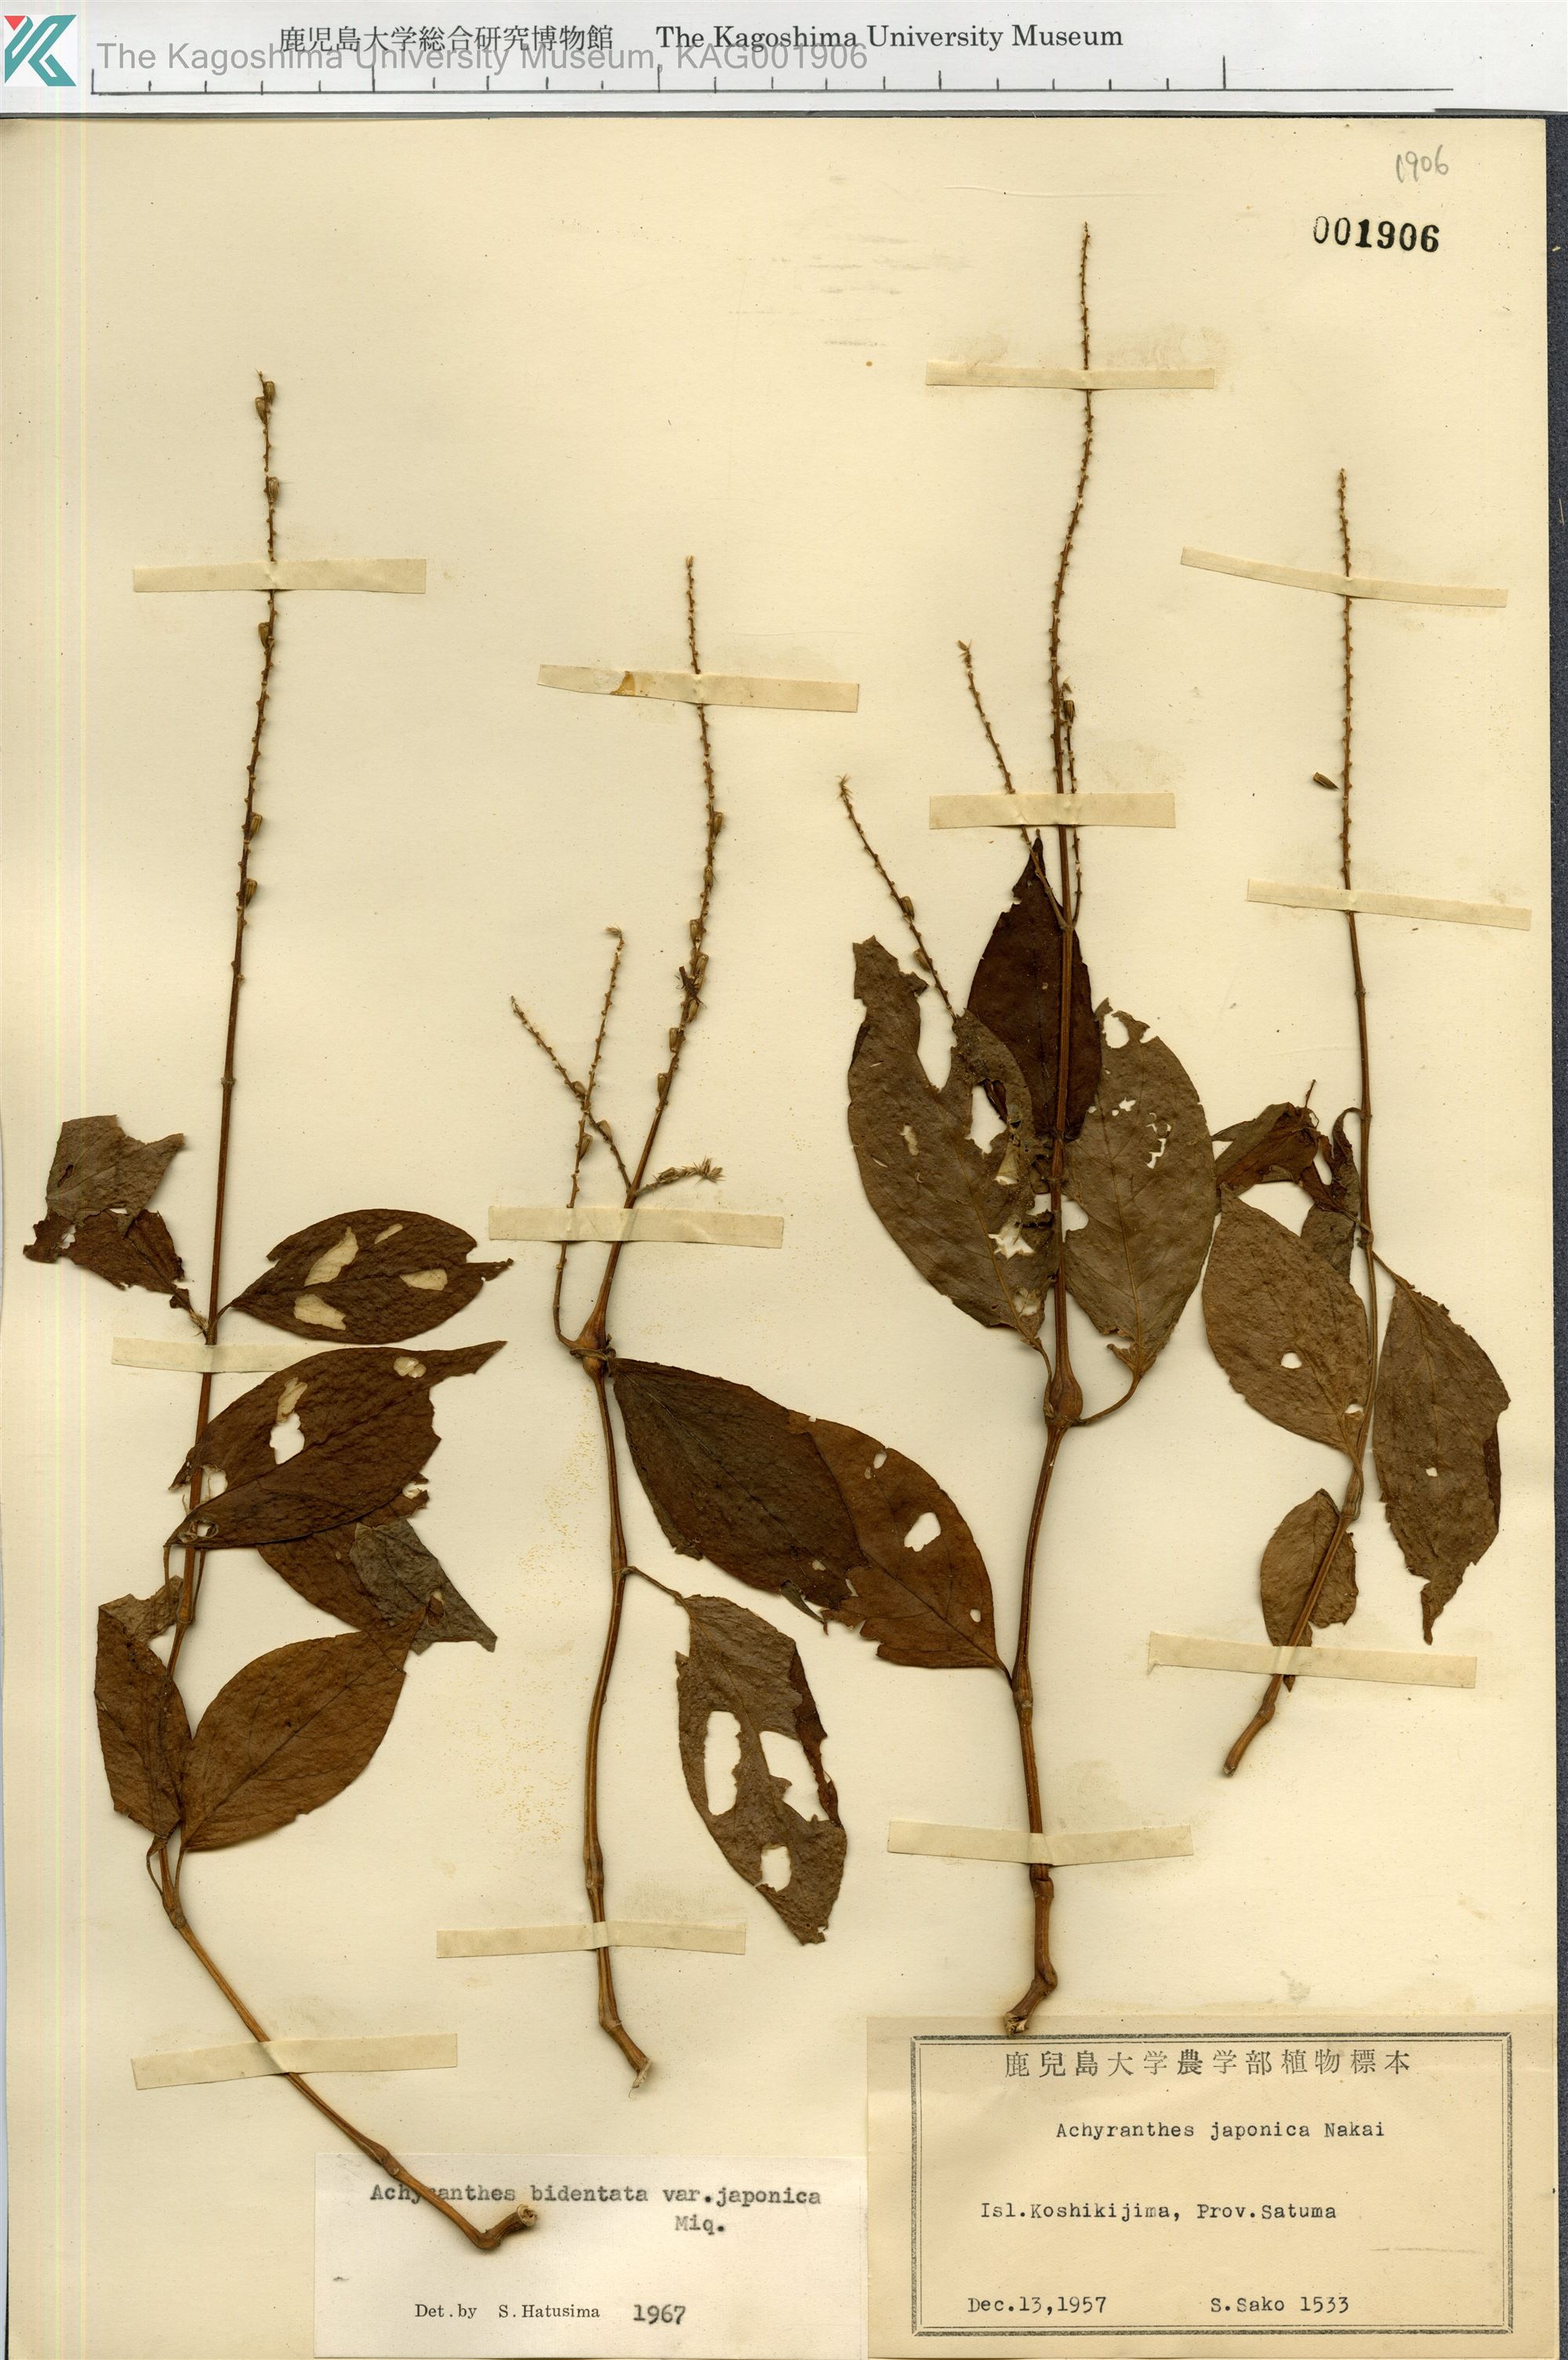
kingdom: Plantae
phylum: Tracheophyta
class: Magnoliopsida
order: Caryophyllales
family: Amaranthaceae
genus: Achyranthes
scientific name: Achyranthes bidentata
